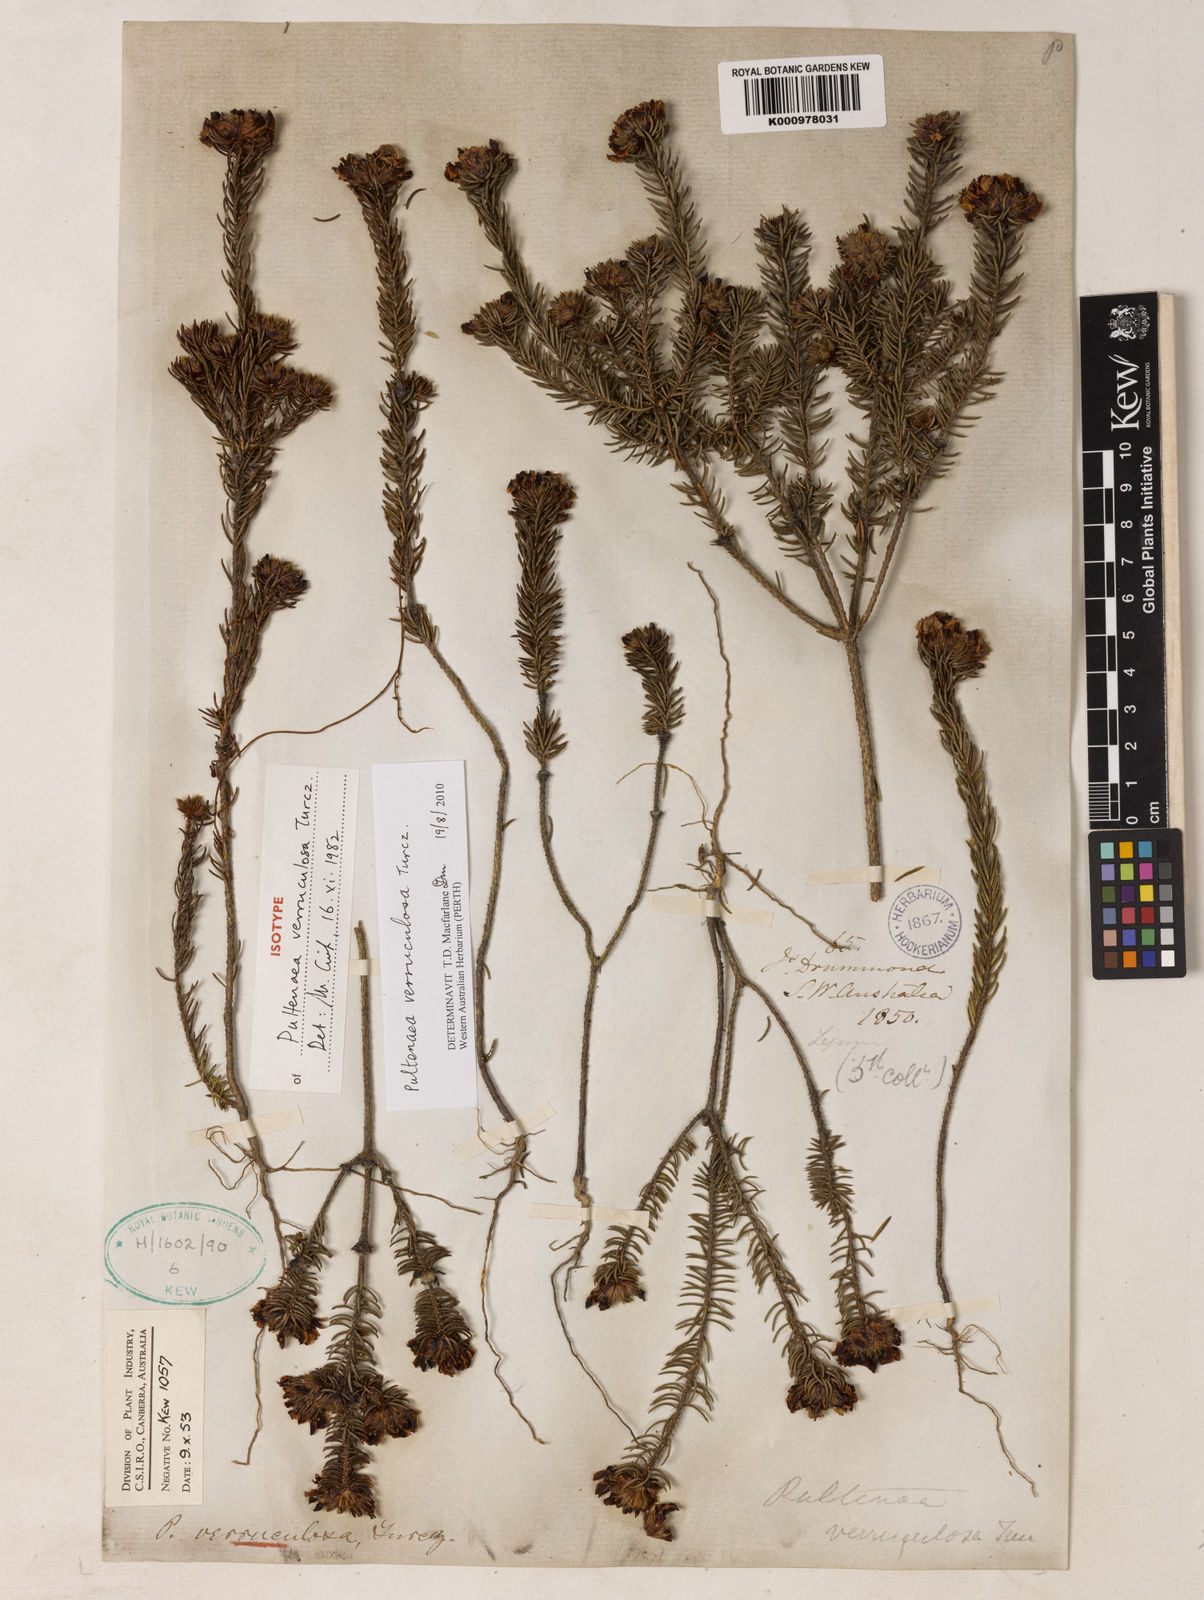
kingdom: Plantae
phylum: Tracheophyta
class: Magnoliopsida
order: Fabales
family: Fabaceae
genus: Pultenaea
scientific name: Pultenaea verruculosa
